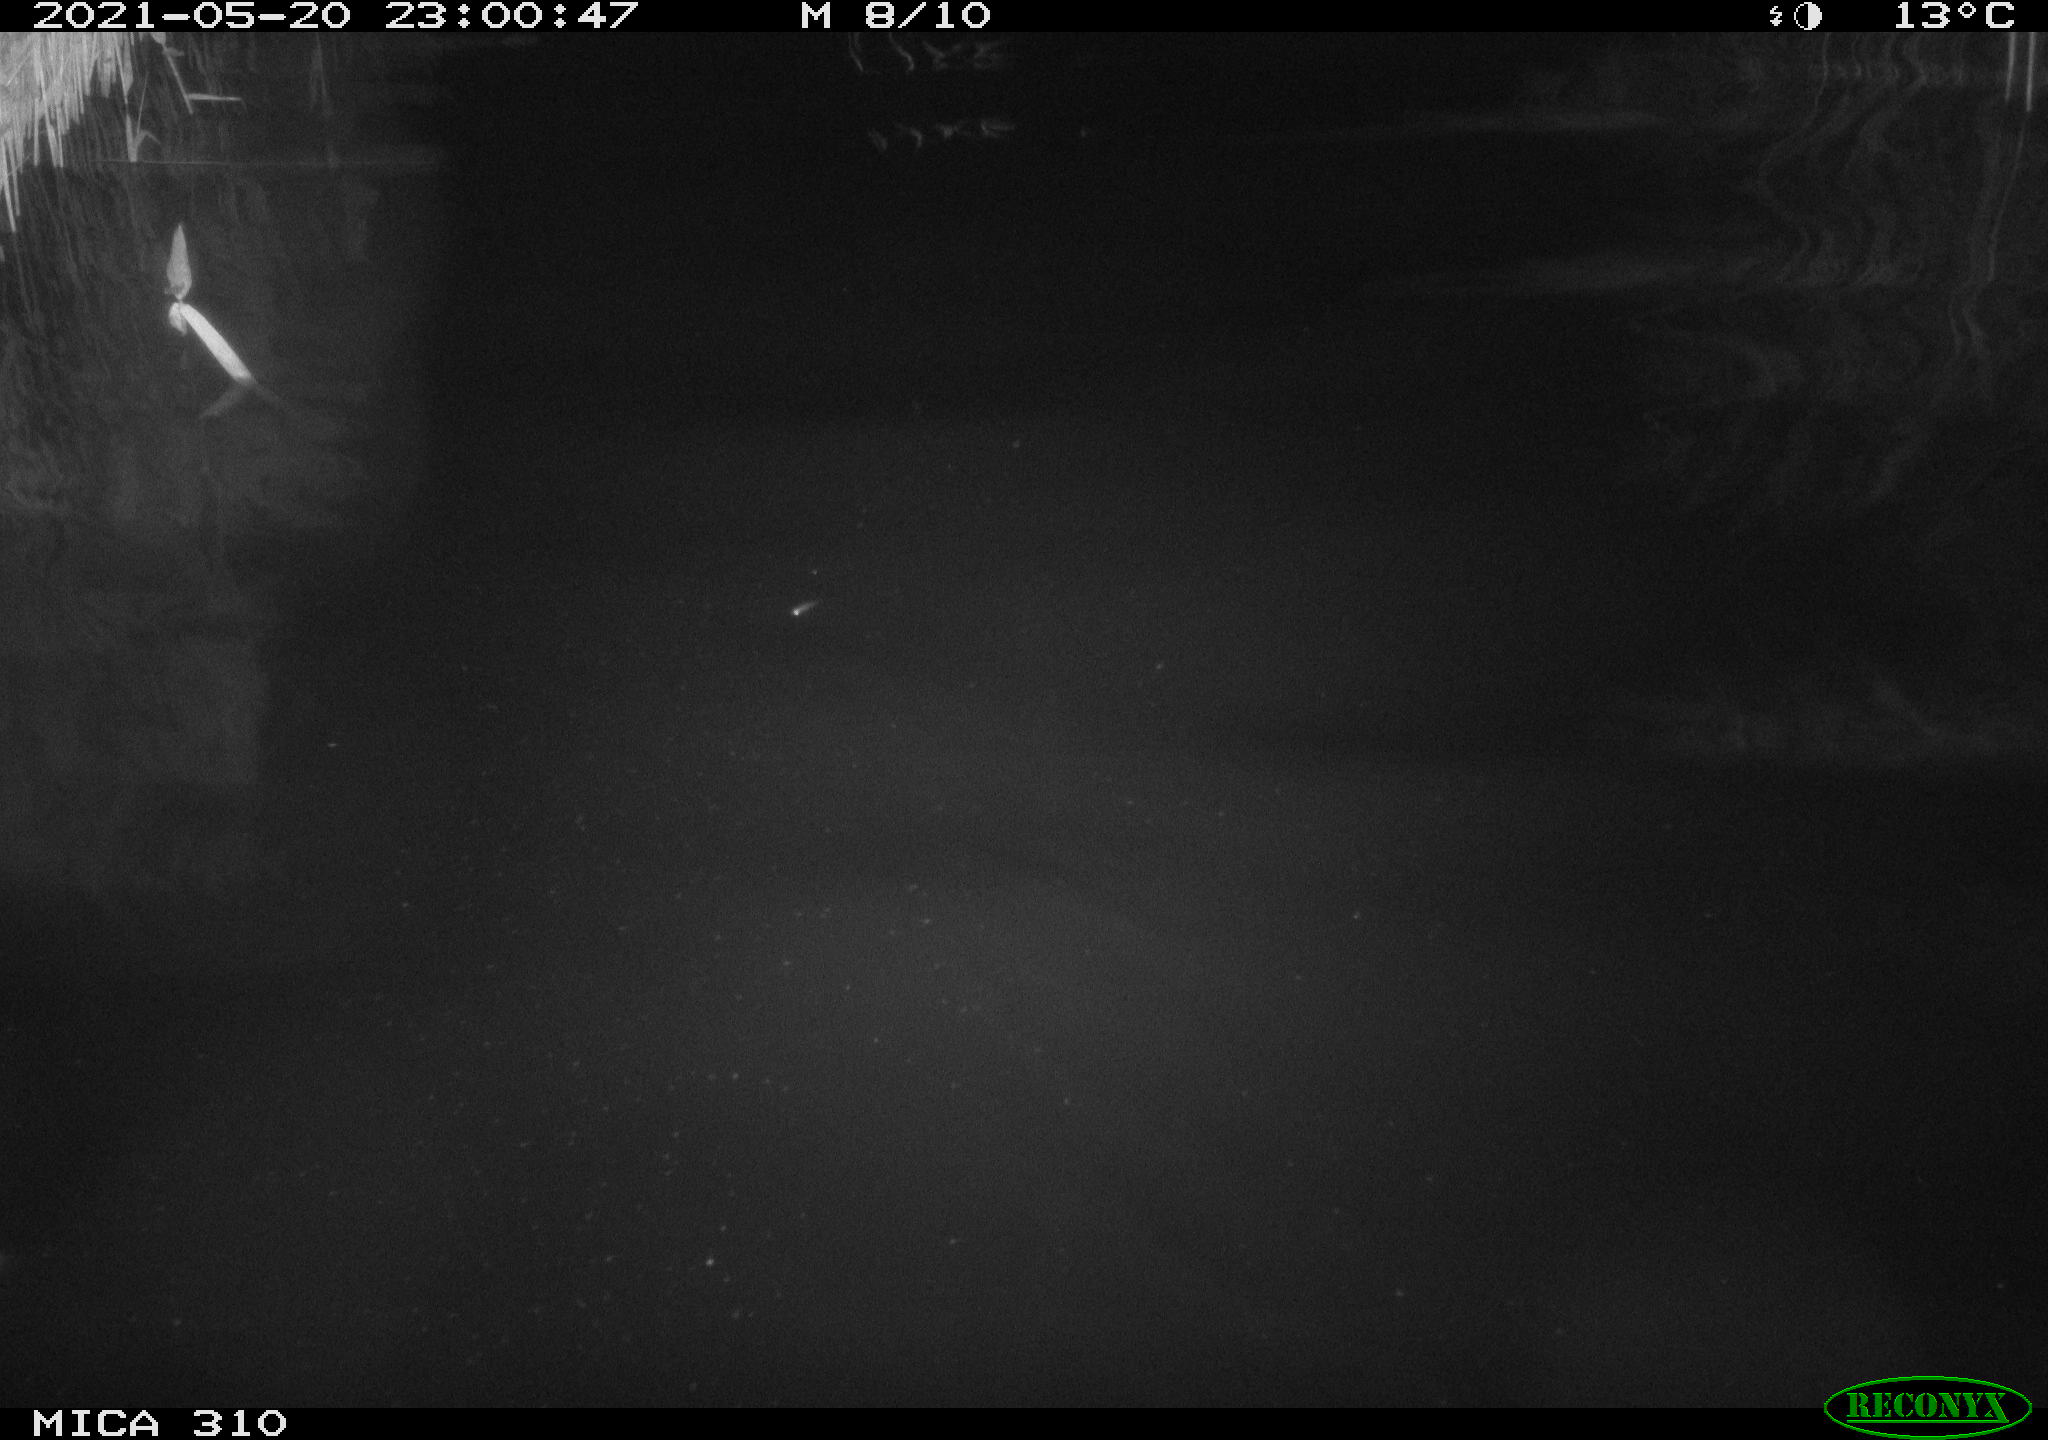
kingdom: Animalia
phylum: Chordata
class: Aves
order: Anseriformes
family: Anatidae
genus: Anas
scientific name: Anas platyrhynchos
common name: Mallard
